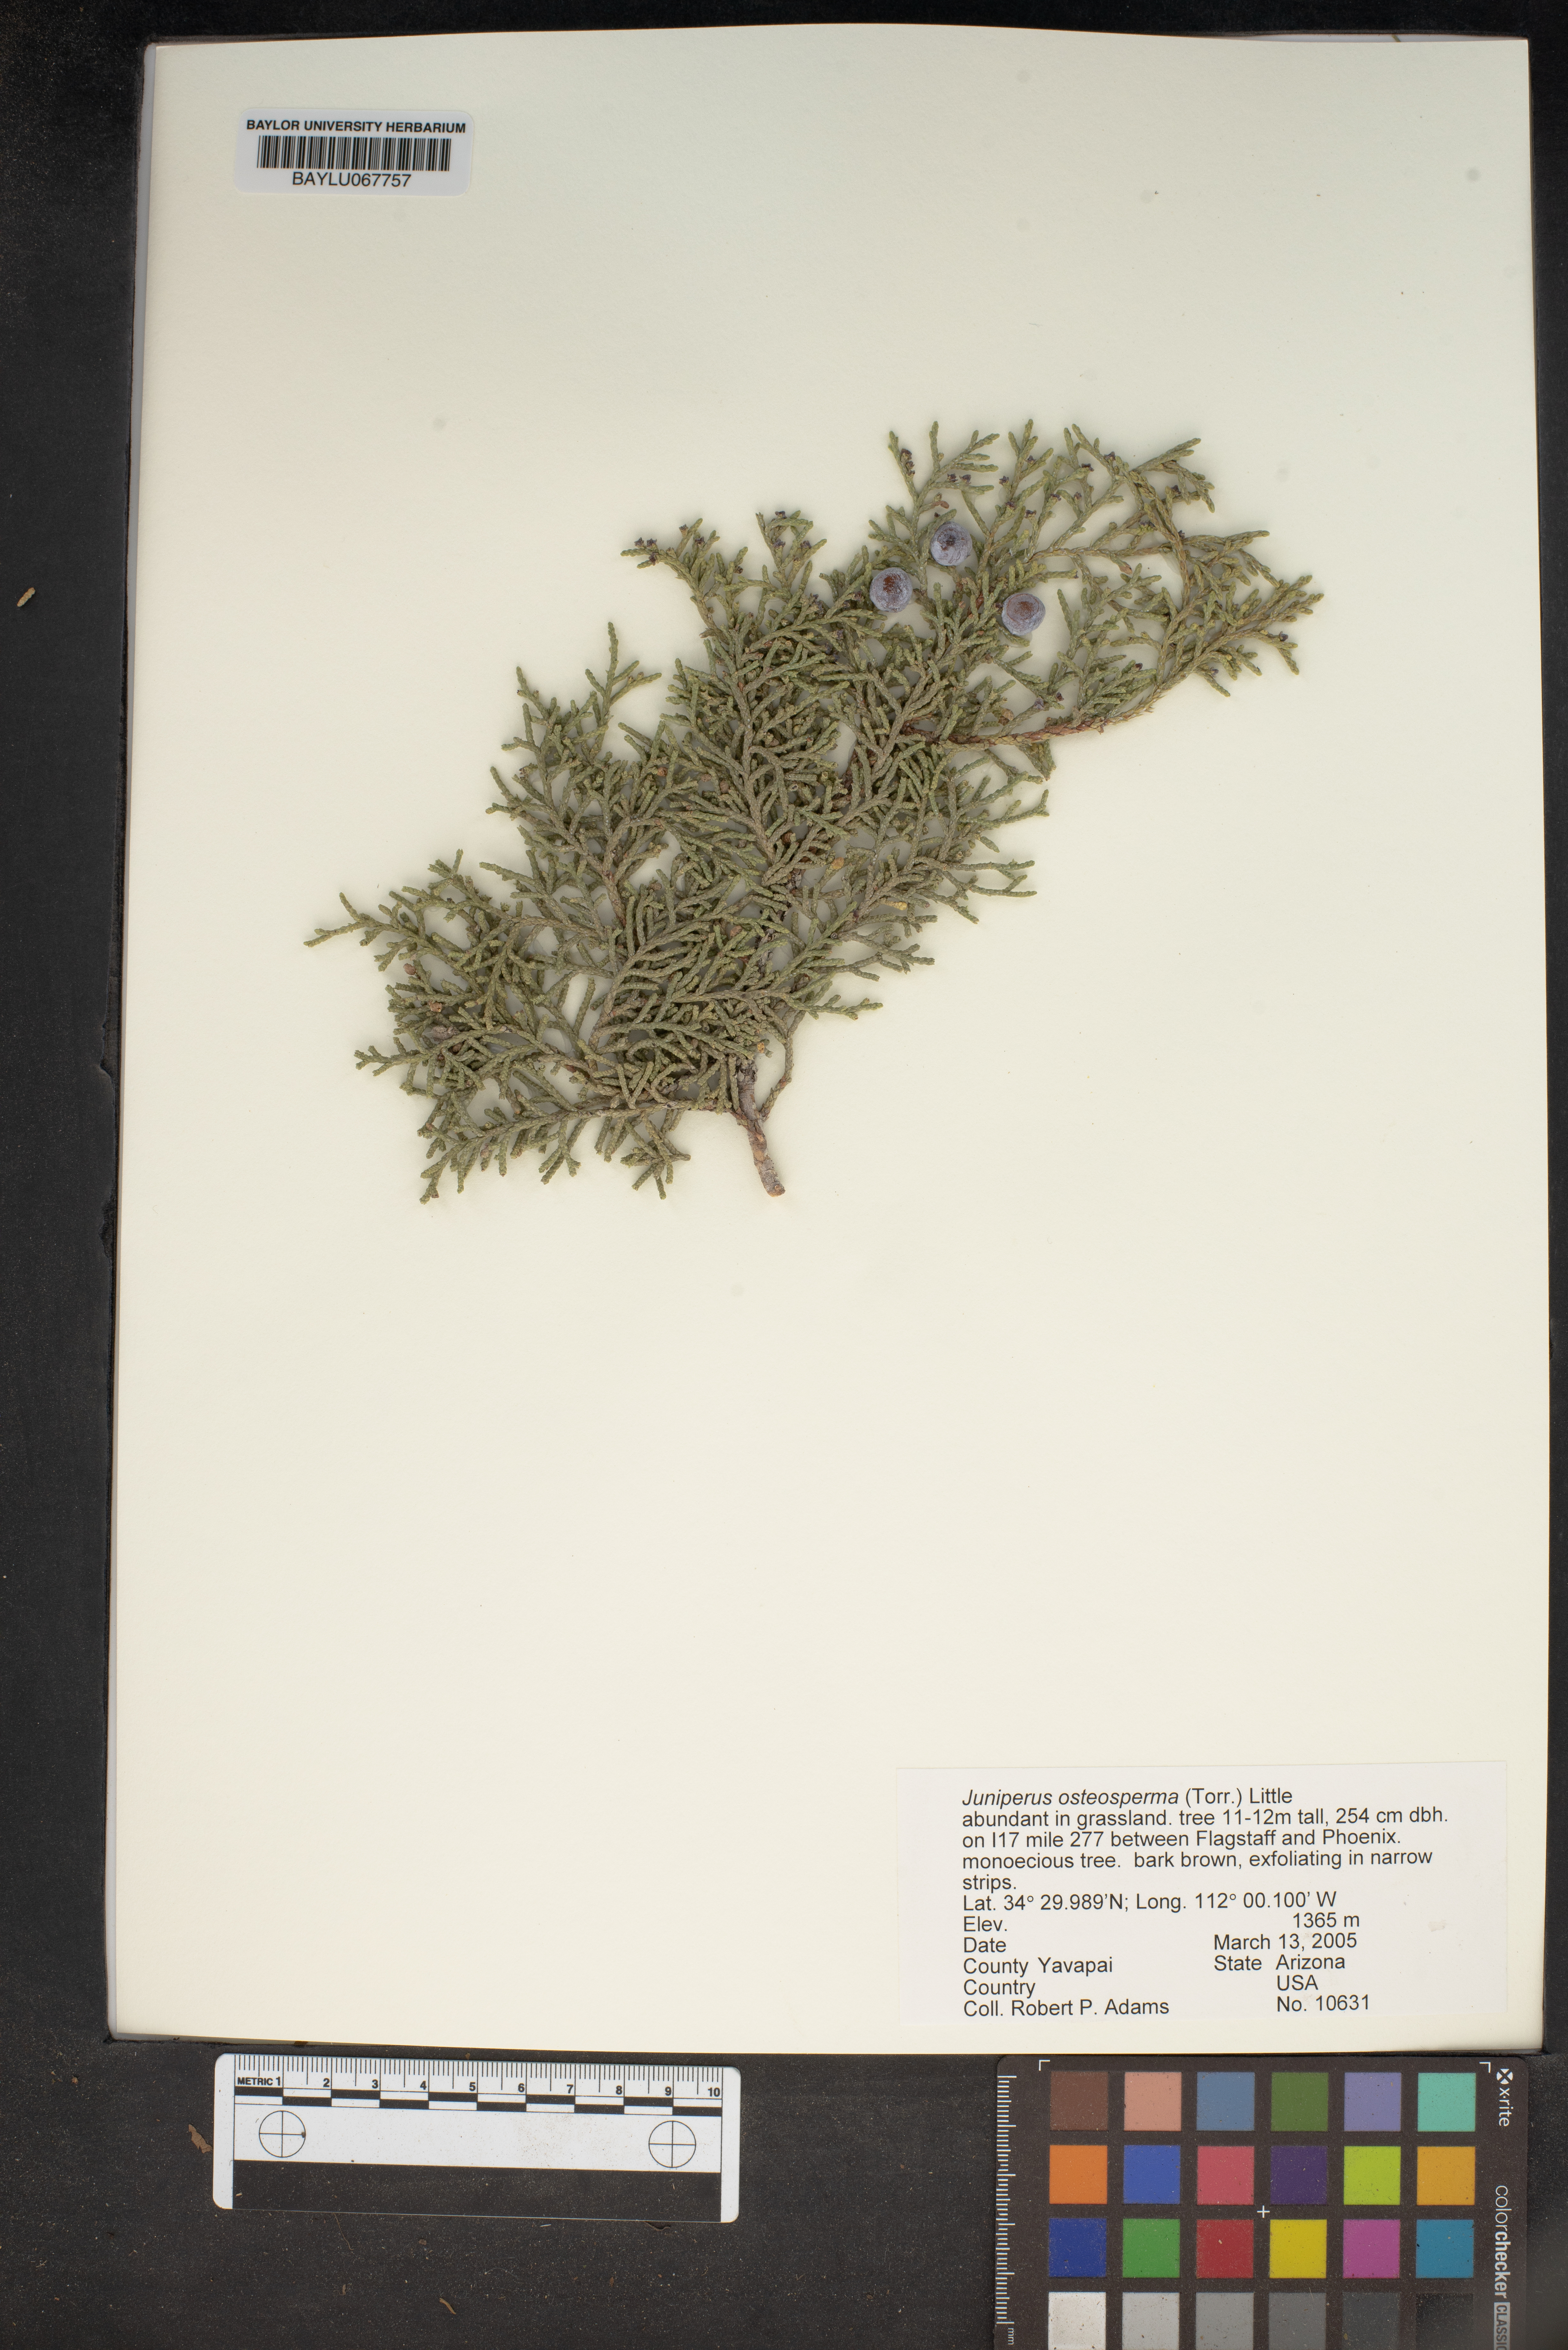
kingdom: Plantae
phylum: Tracheophyta
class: Pinopsida
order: Pinales
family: Cupressaceae
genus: Juniperus
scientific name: Juniperus osteosperma
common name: Utah juniper
